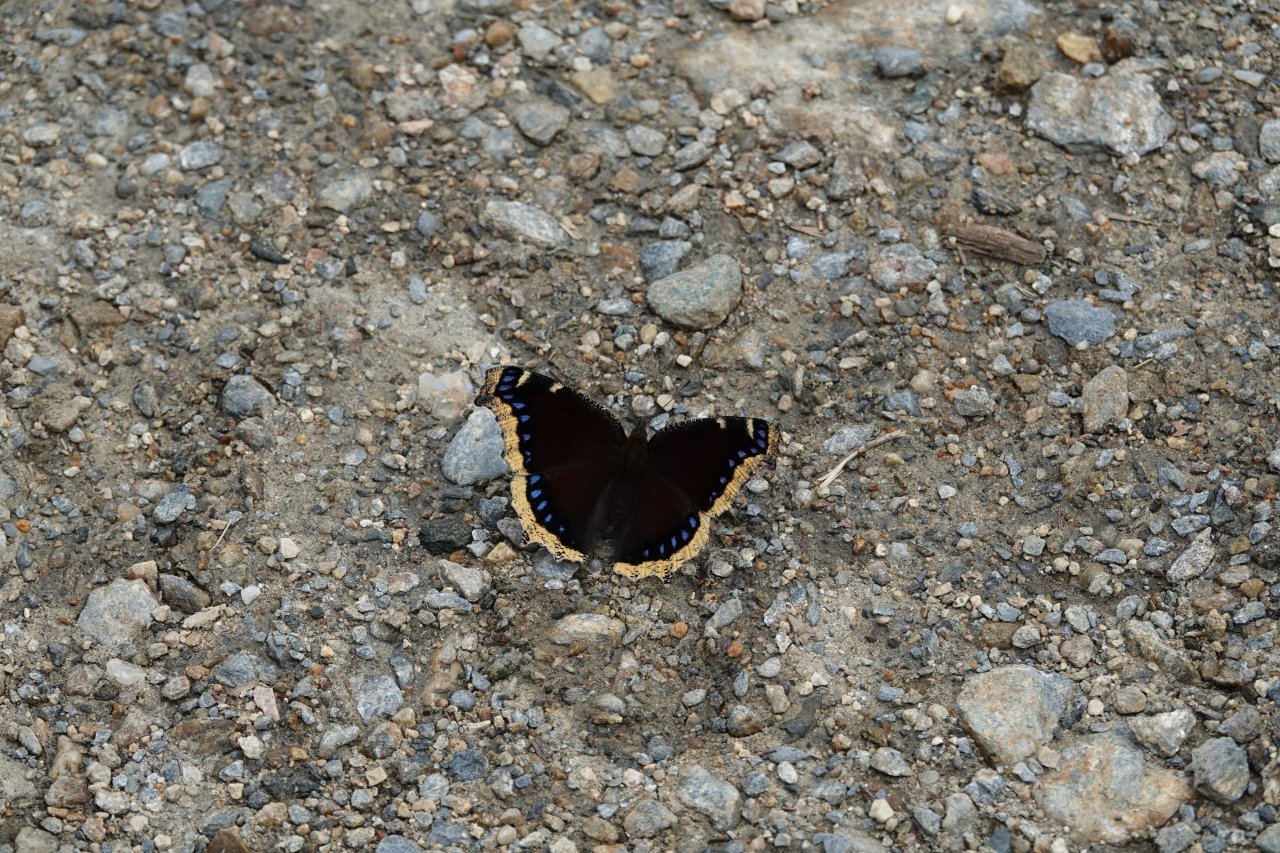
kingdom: Animalia
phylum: Arthropoda
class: Insecta
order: Lepidoptera
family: Nymphalidae
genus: Nymphalis
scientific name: Nymphalis antiopa
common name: Mourning Cloak
